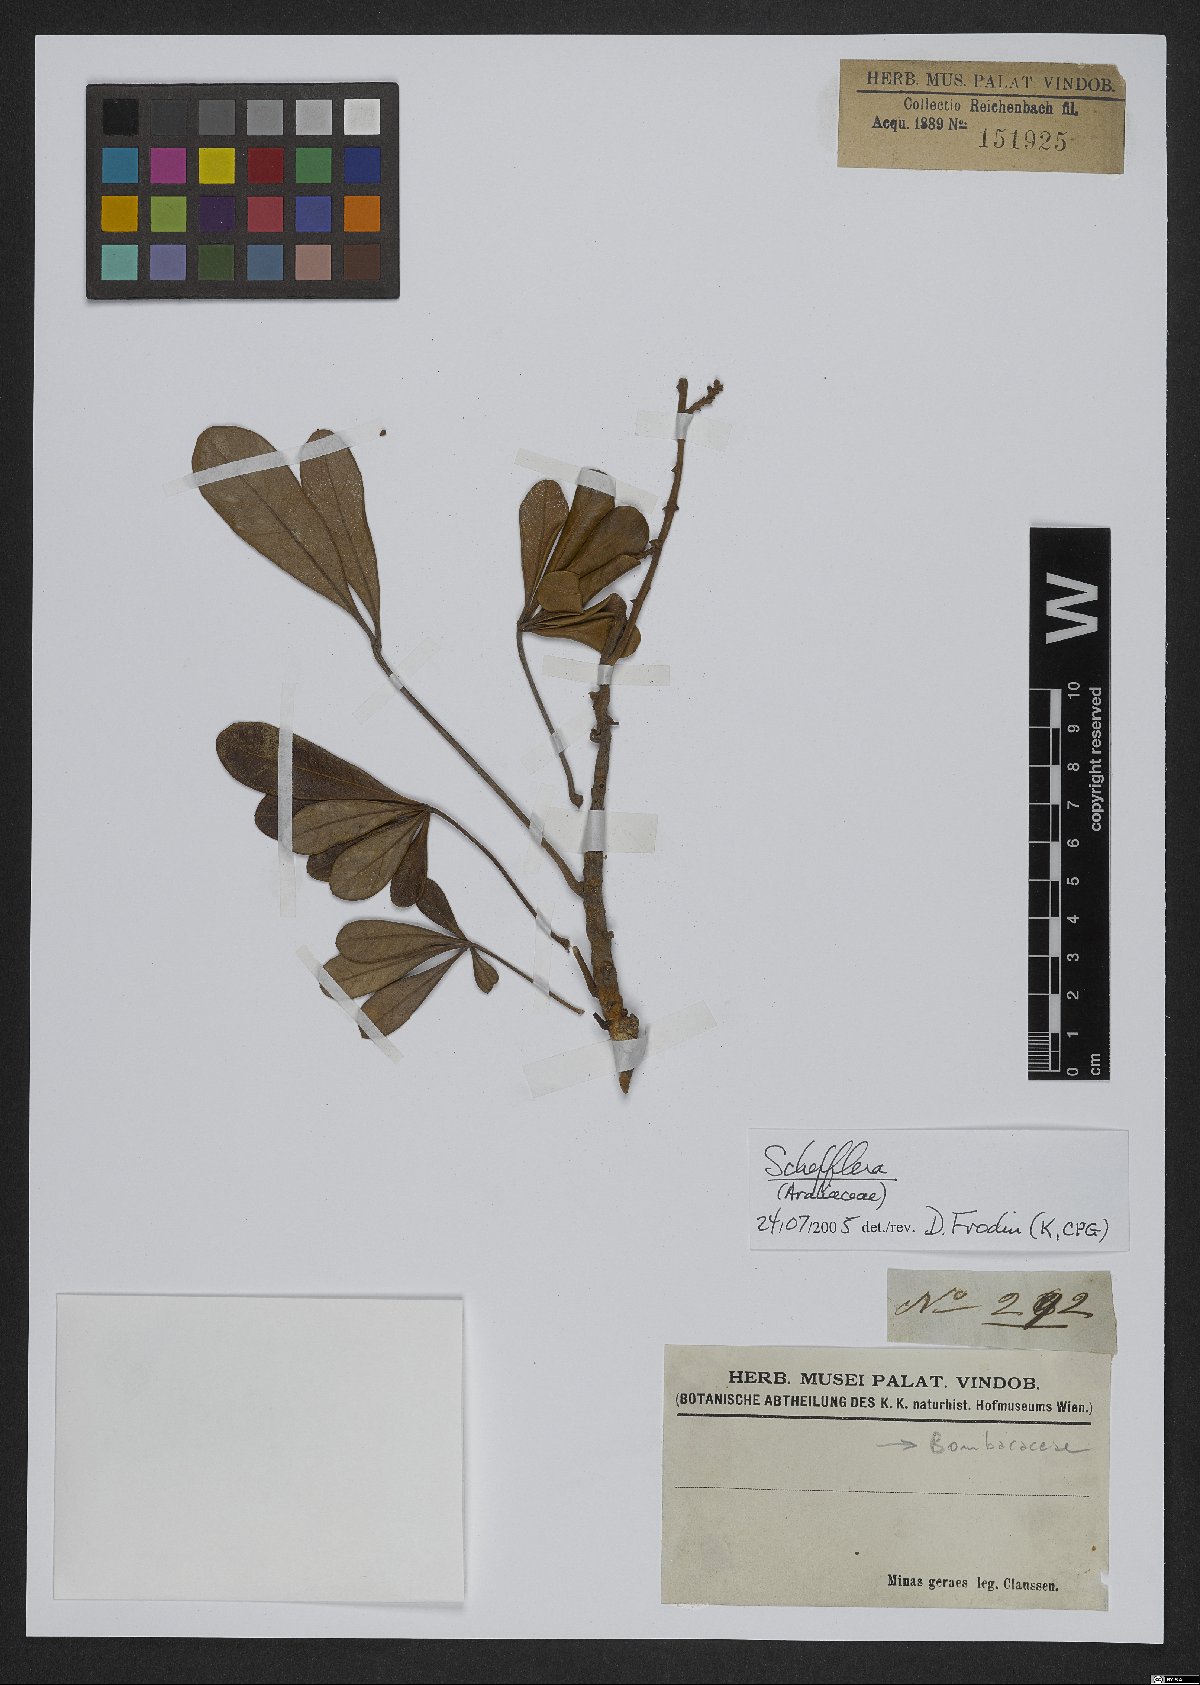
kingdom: Plantae
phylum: Tracheophyta
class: Magnoliopsida
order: Apiales
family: Araliaceae
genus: Didymopanax
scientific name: Didymopanax vinosus
